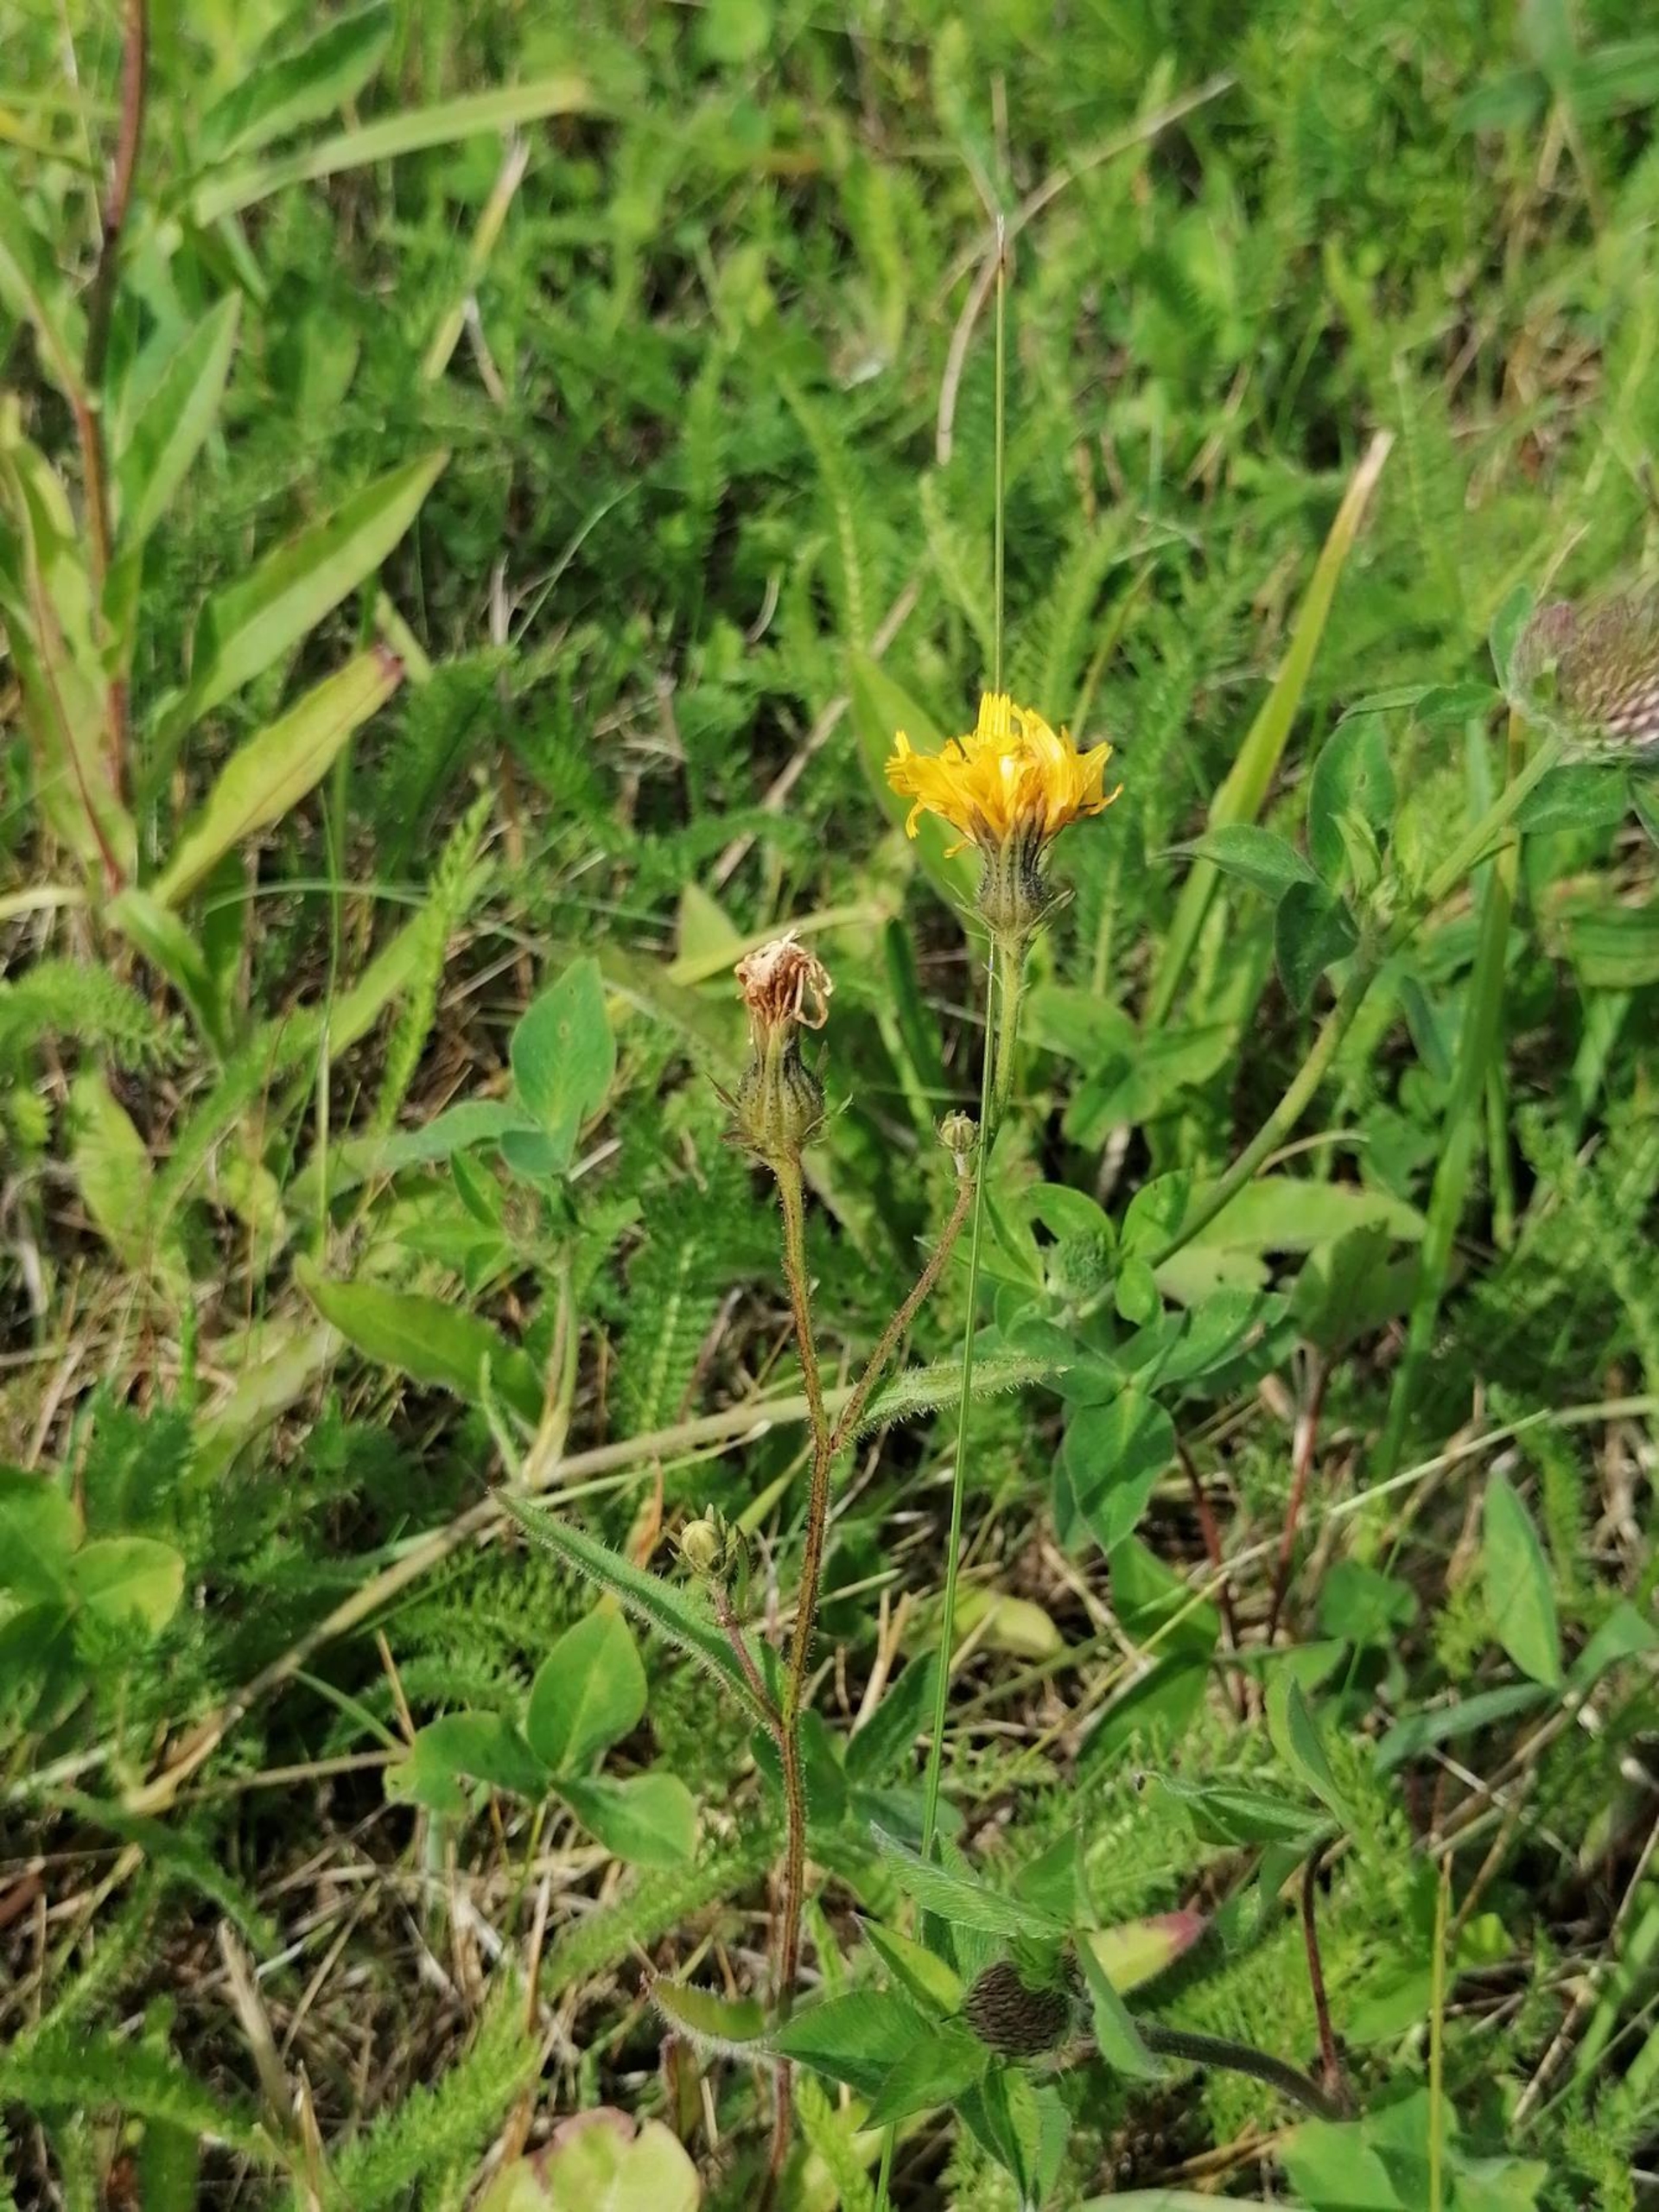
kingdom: Plantae
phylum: Tracheophyta
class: Magnoliopsida
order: Asterales
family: Asteraceae
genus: Picris
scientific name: Picris hieracioides
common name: Ru bittermælk
